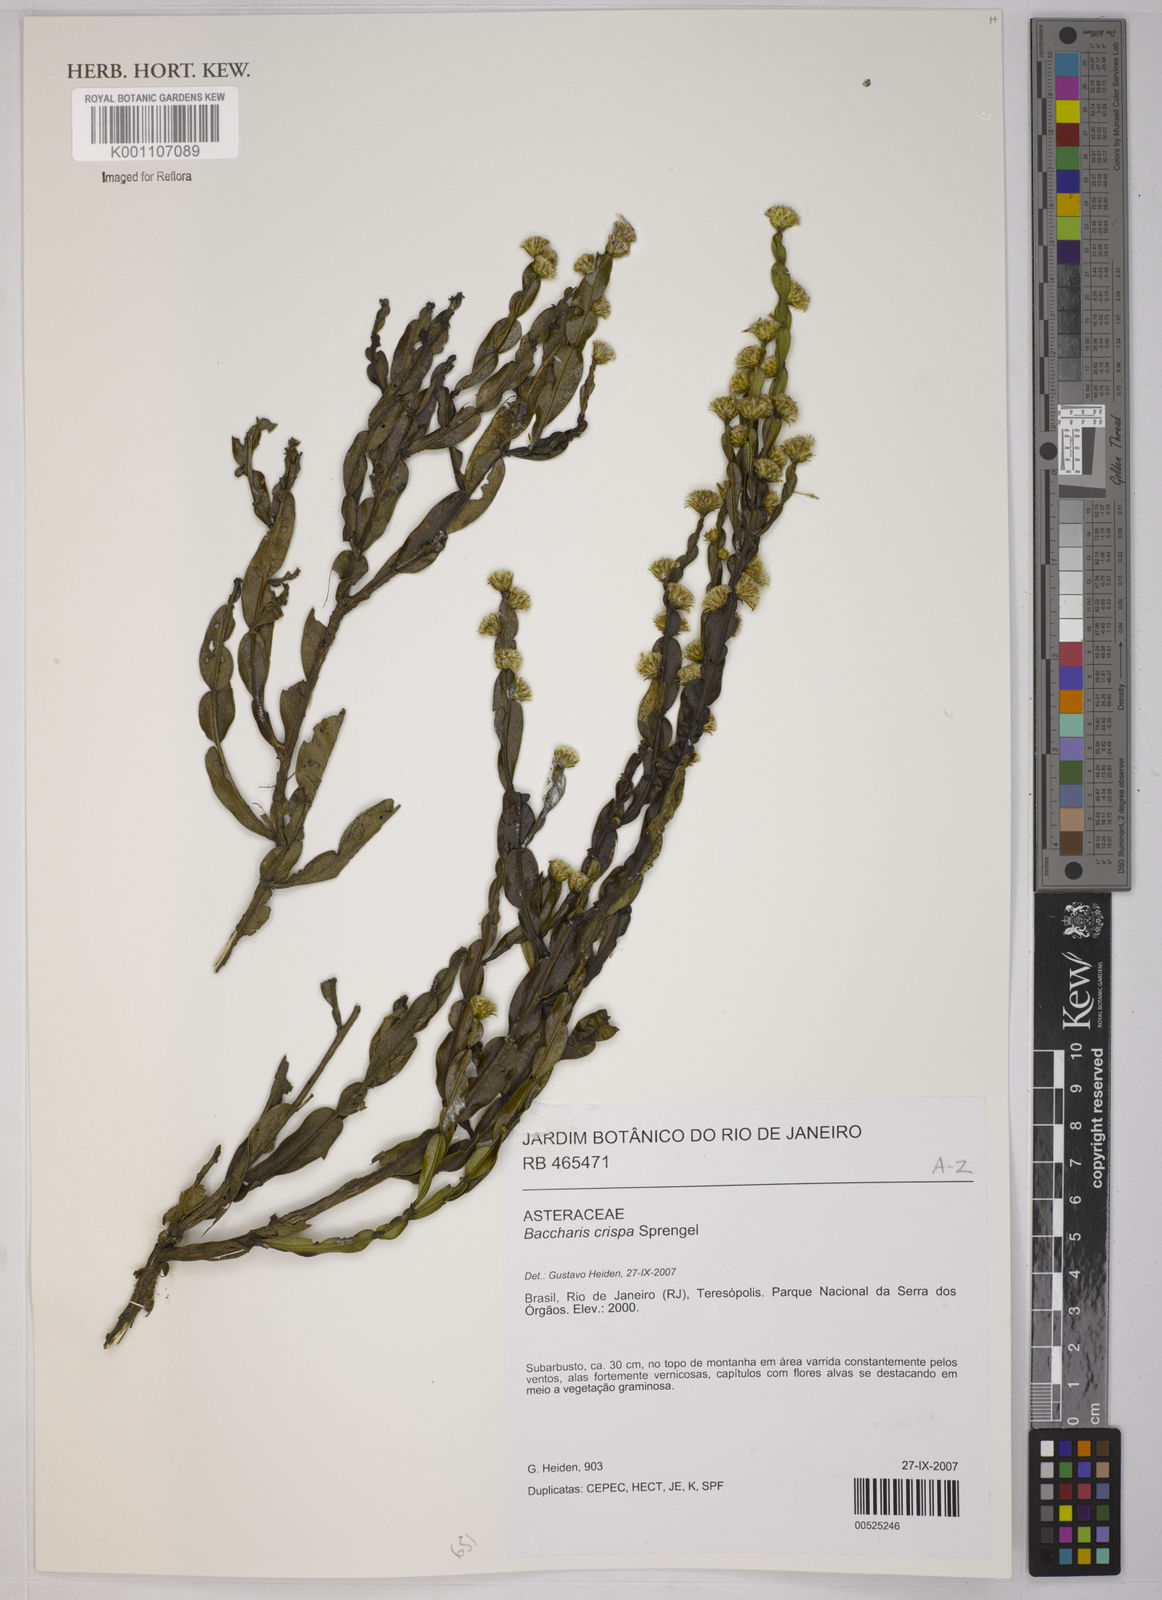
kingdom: Plantae
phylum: Tracheophyta
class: Magnoliopsida
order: Asterales
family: Asteraceae
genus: Baccharis
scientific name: Baccharis crispa
